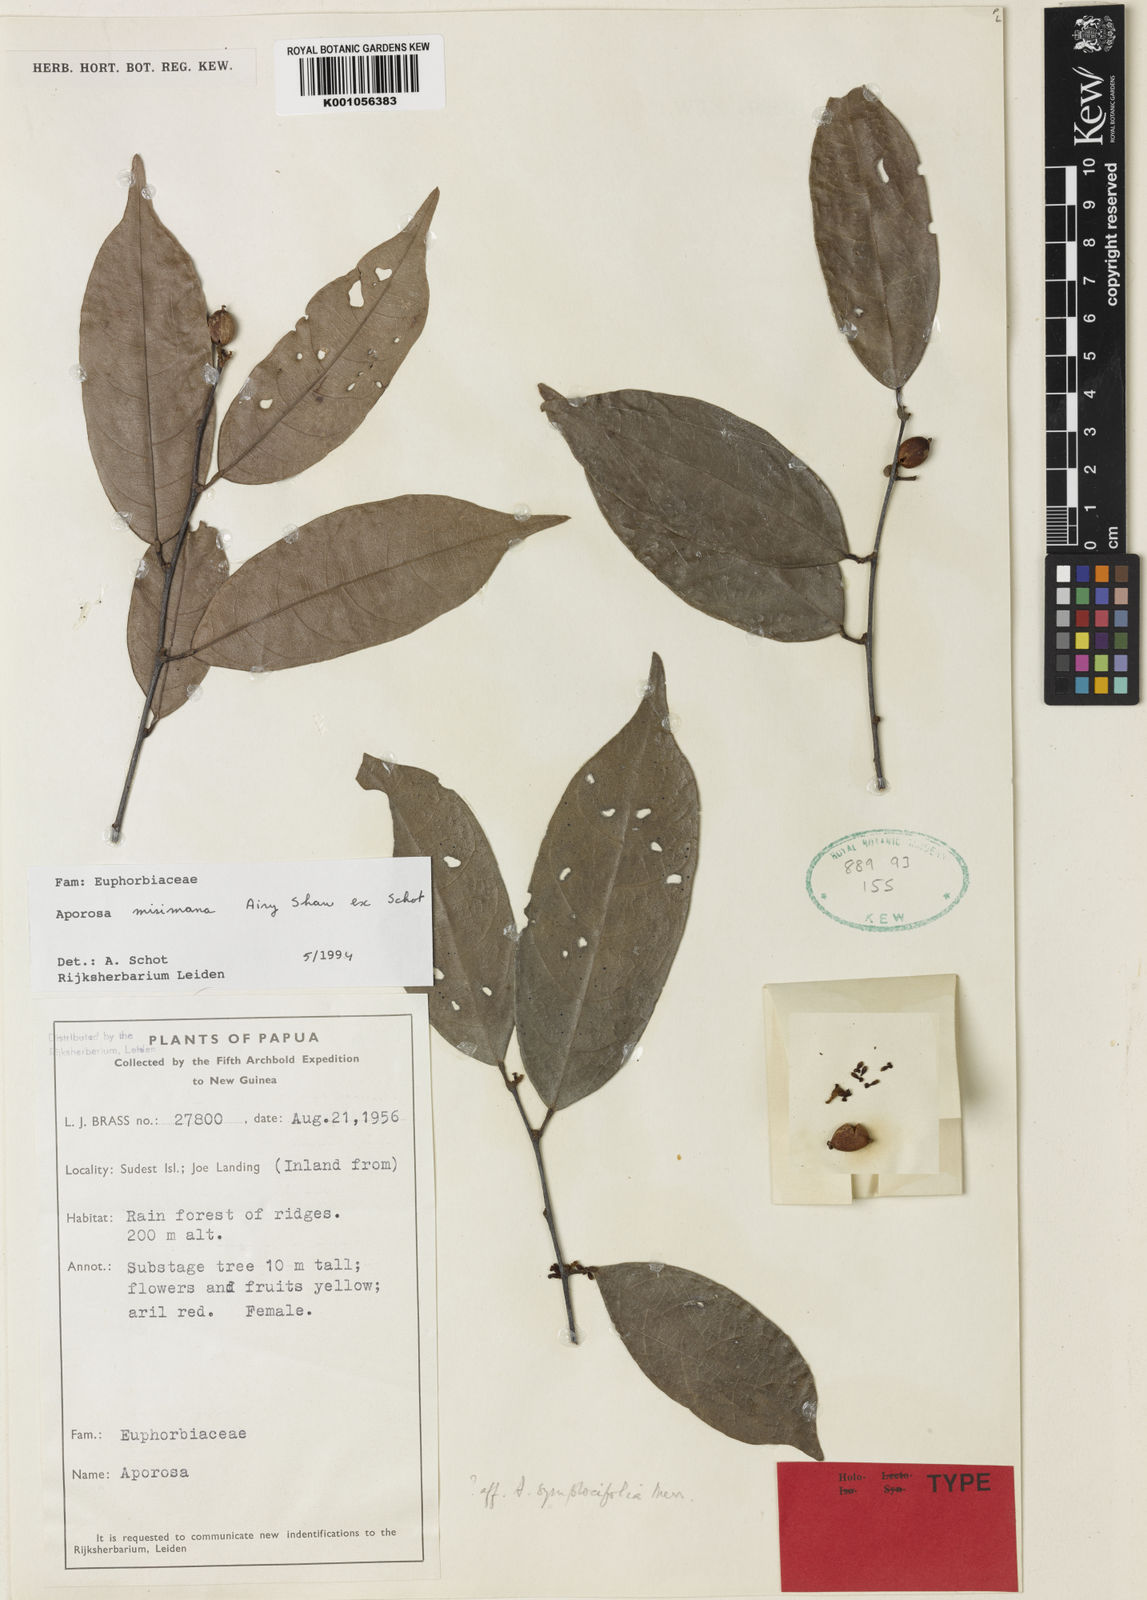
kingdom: Plantae
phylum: Tracheophyta
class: Magnoliopsida
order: Malpighiales
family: Phyllanthaceae
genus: Aporosa
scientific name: Aporosa misimana
